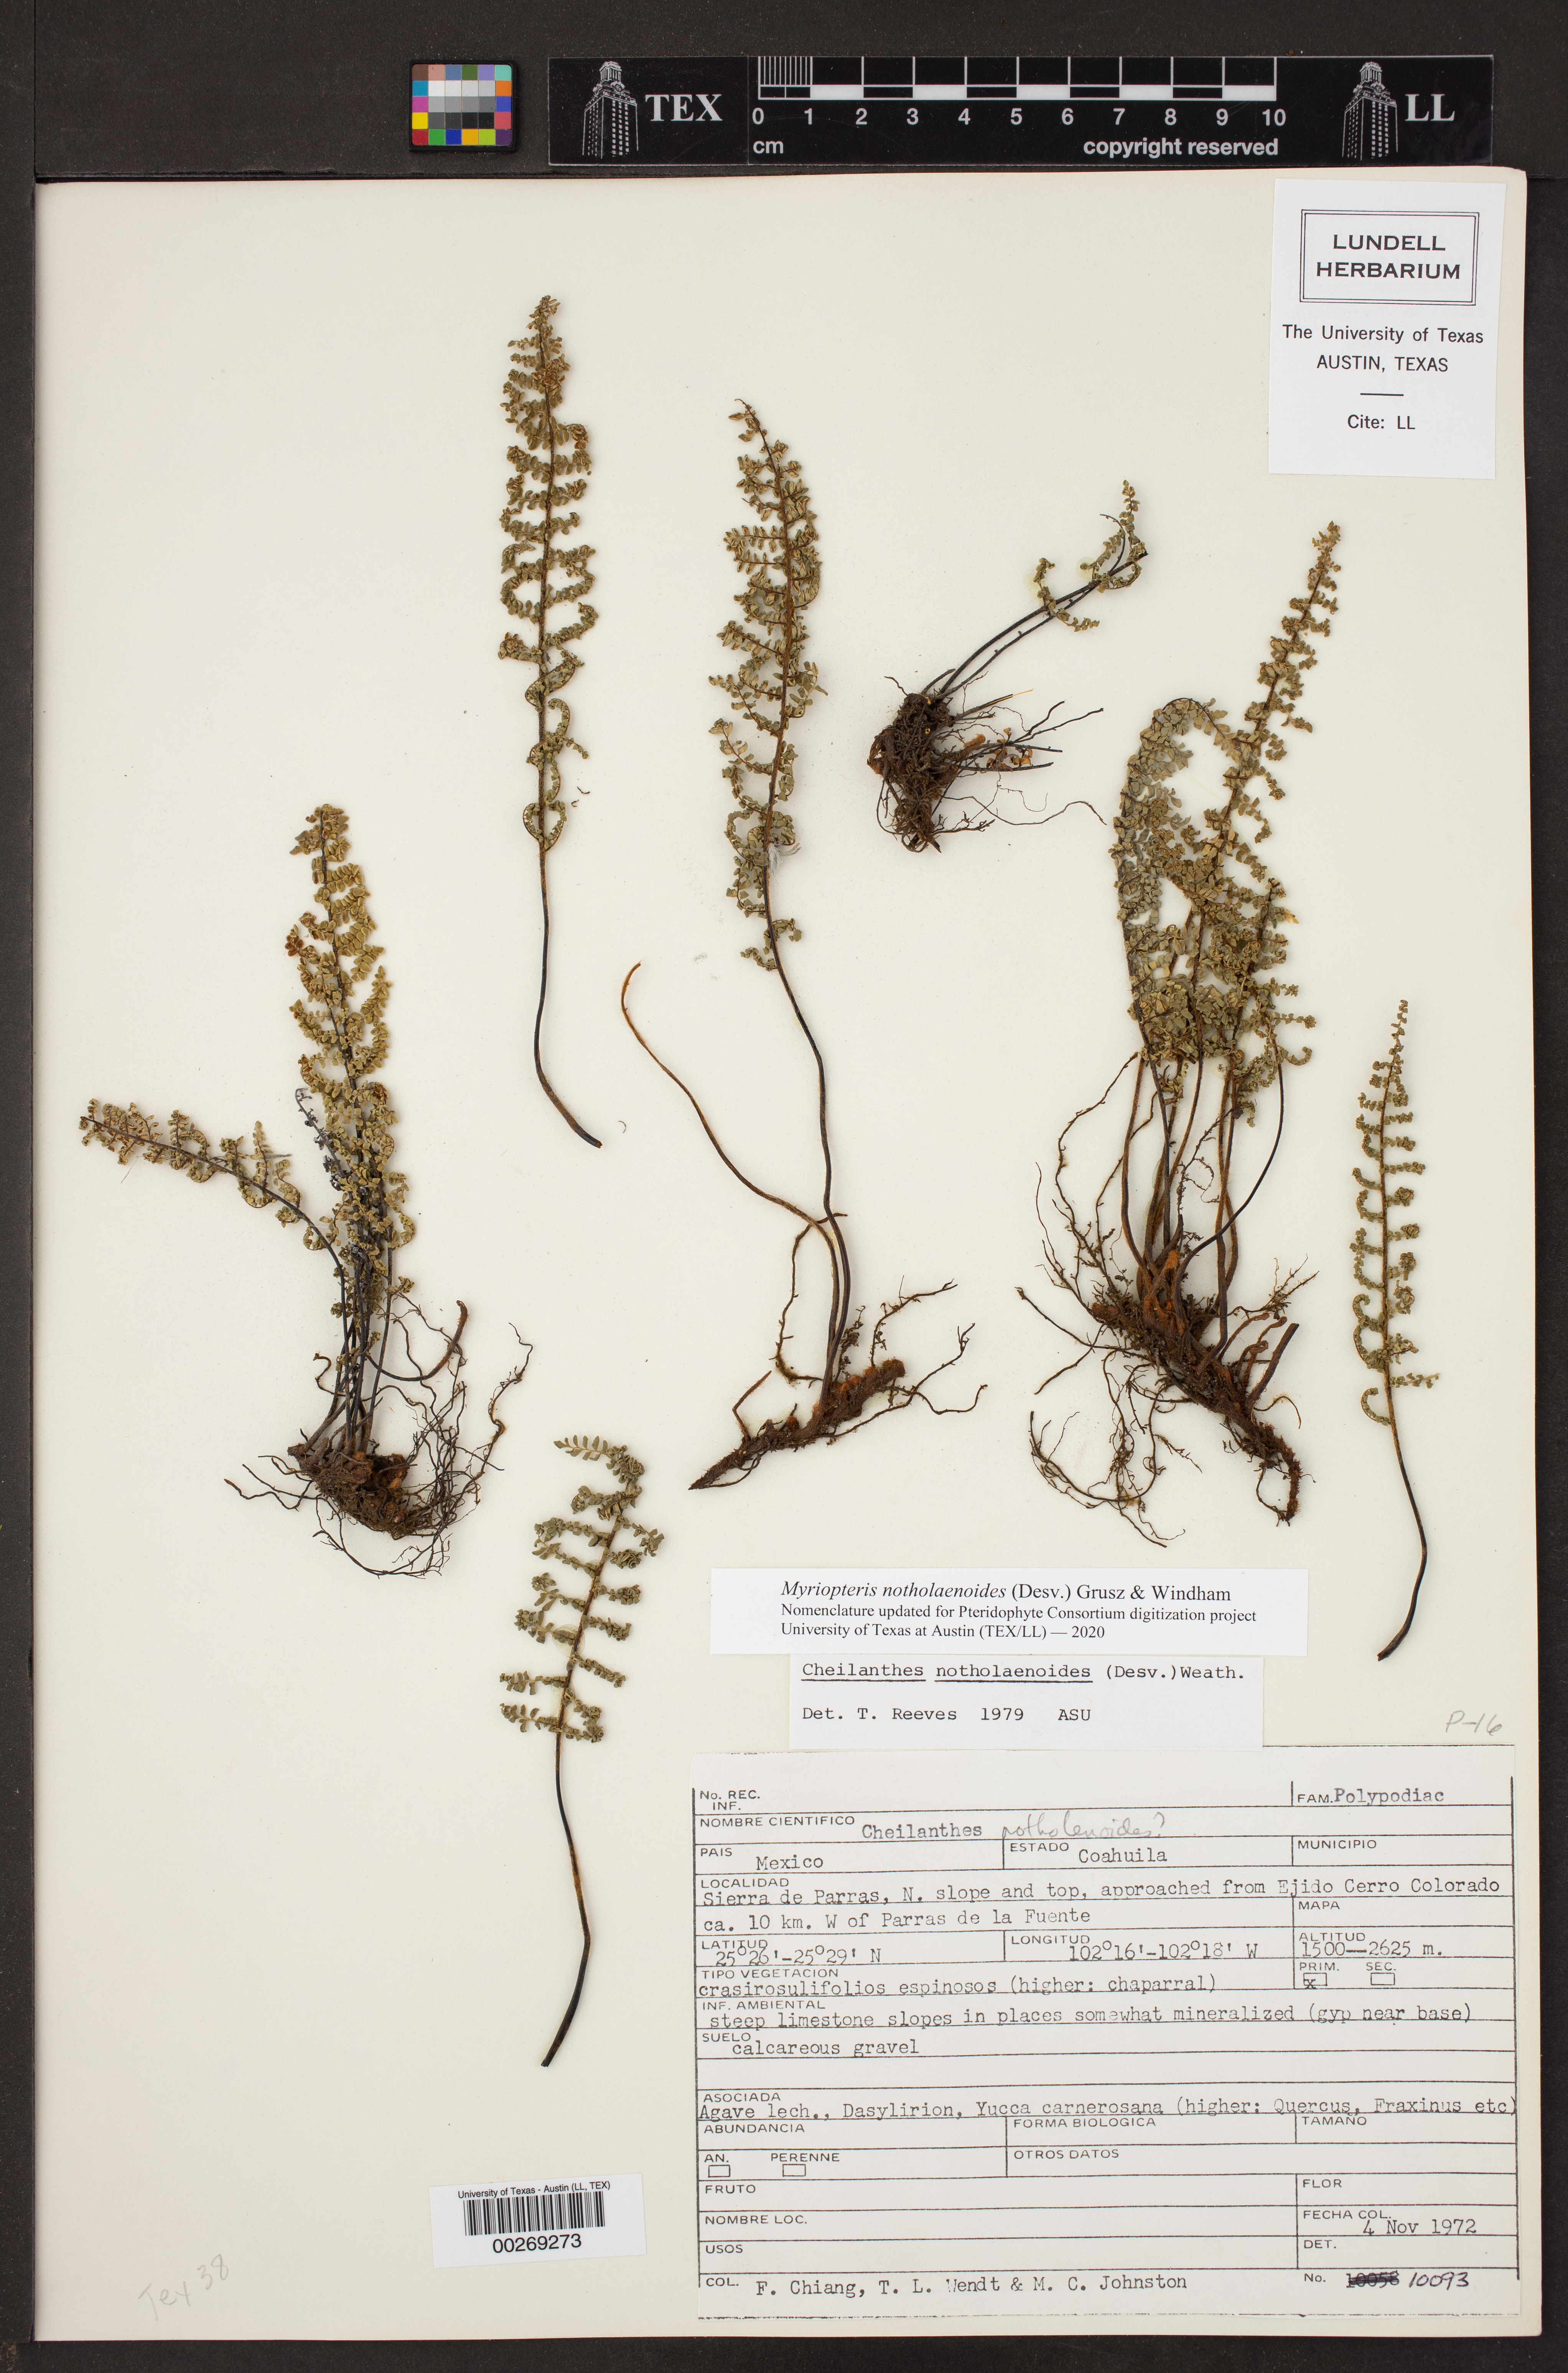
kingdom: Plantae
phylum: Tracheophyta
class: Polypodiopsida
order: Polypodiales
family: Pteridaceae
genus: Myriopteris
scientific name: Myriopteris notholaenoides
